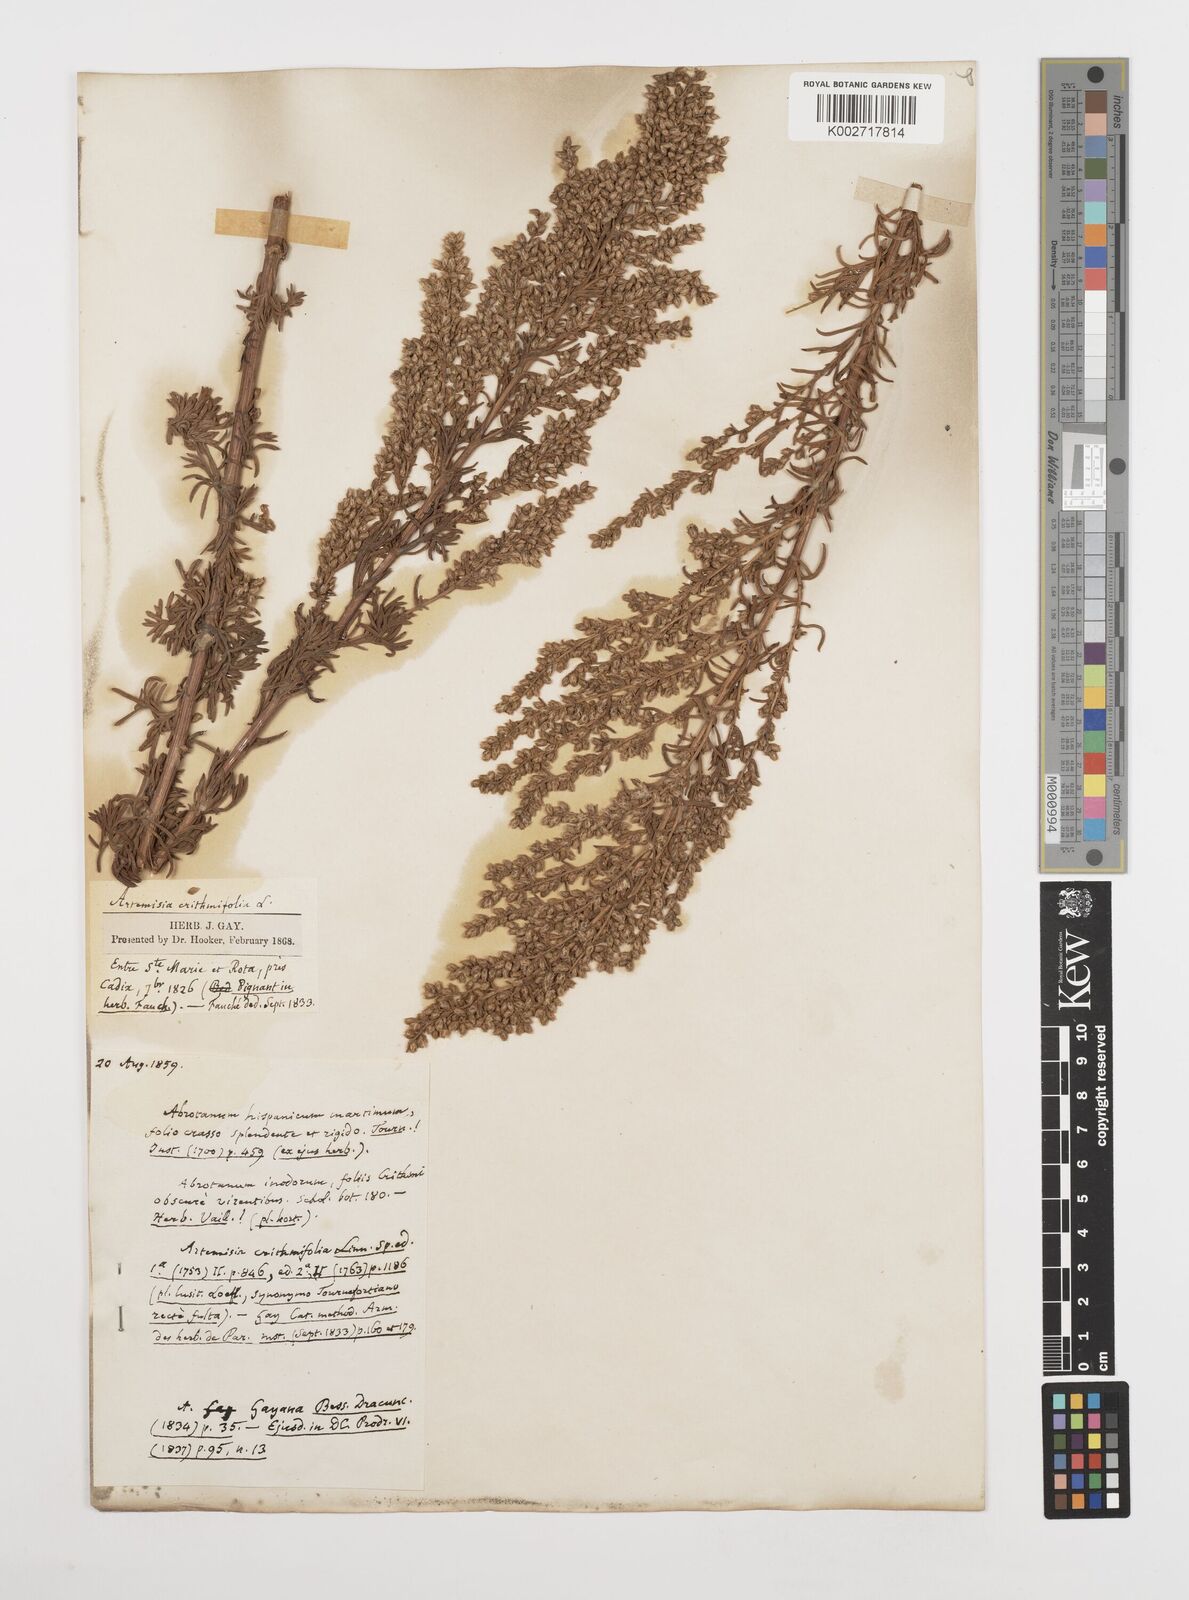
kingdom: Plantae
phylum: Tracheophyta
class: Magnoliopsida
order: Asterales
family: Asteraceae
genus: Artemisia
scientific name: Artemisia crithmifolia
